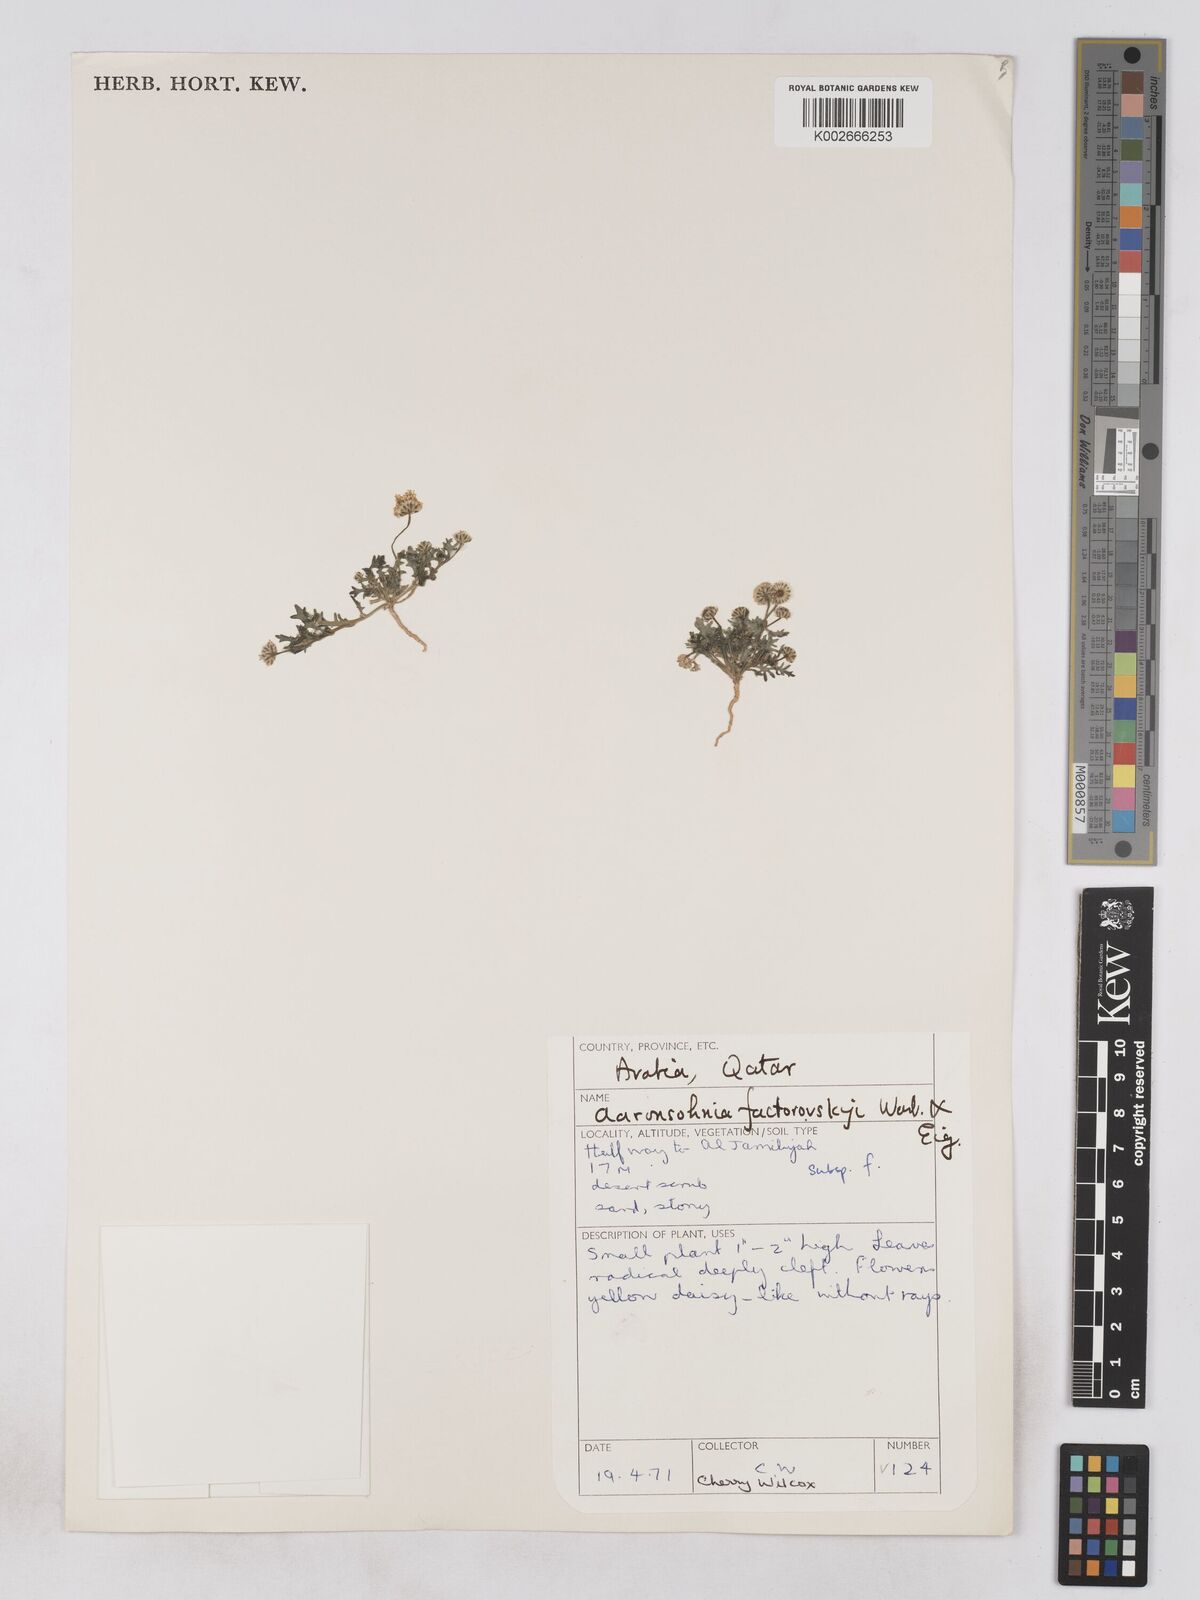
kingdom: Plantae
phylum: Tracheophyta
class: Magnoliopsida
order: Asterales
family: Asteraceae
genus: Otoglyphis
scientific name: Otoglyphis factorovskyi
